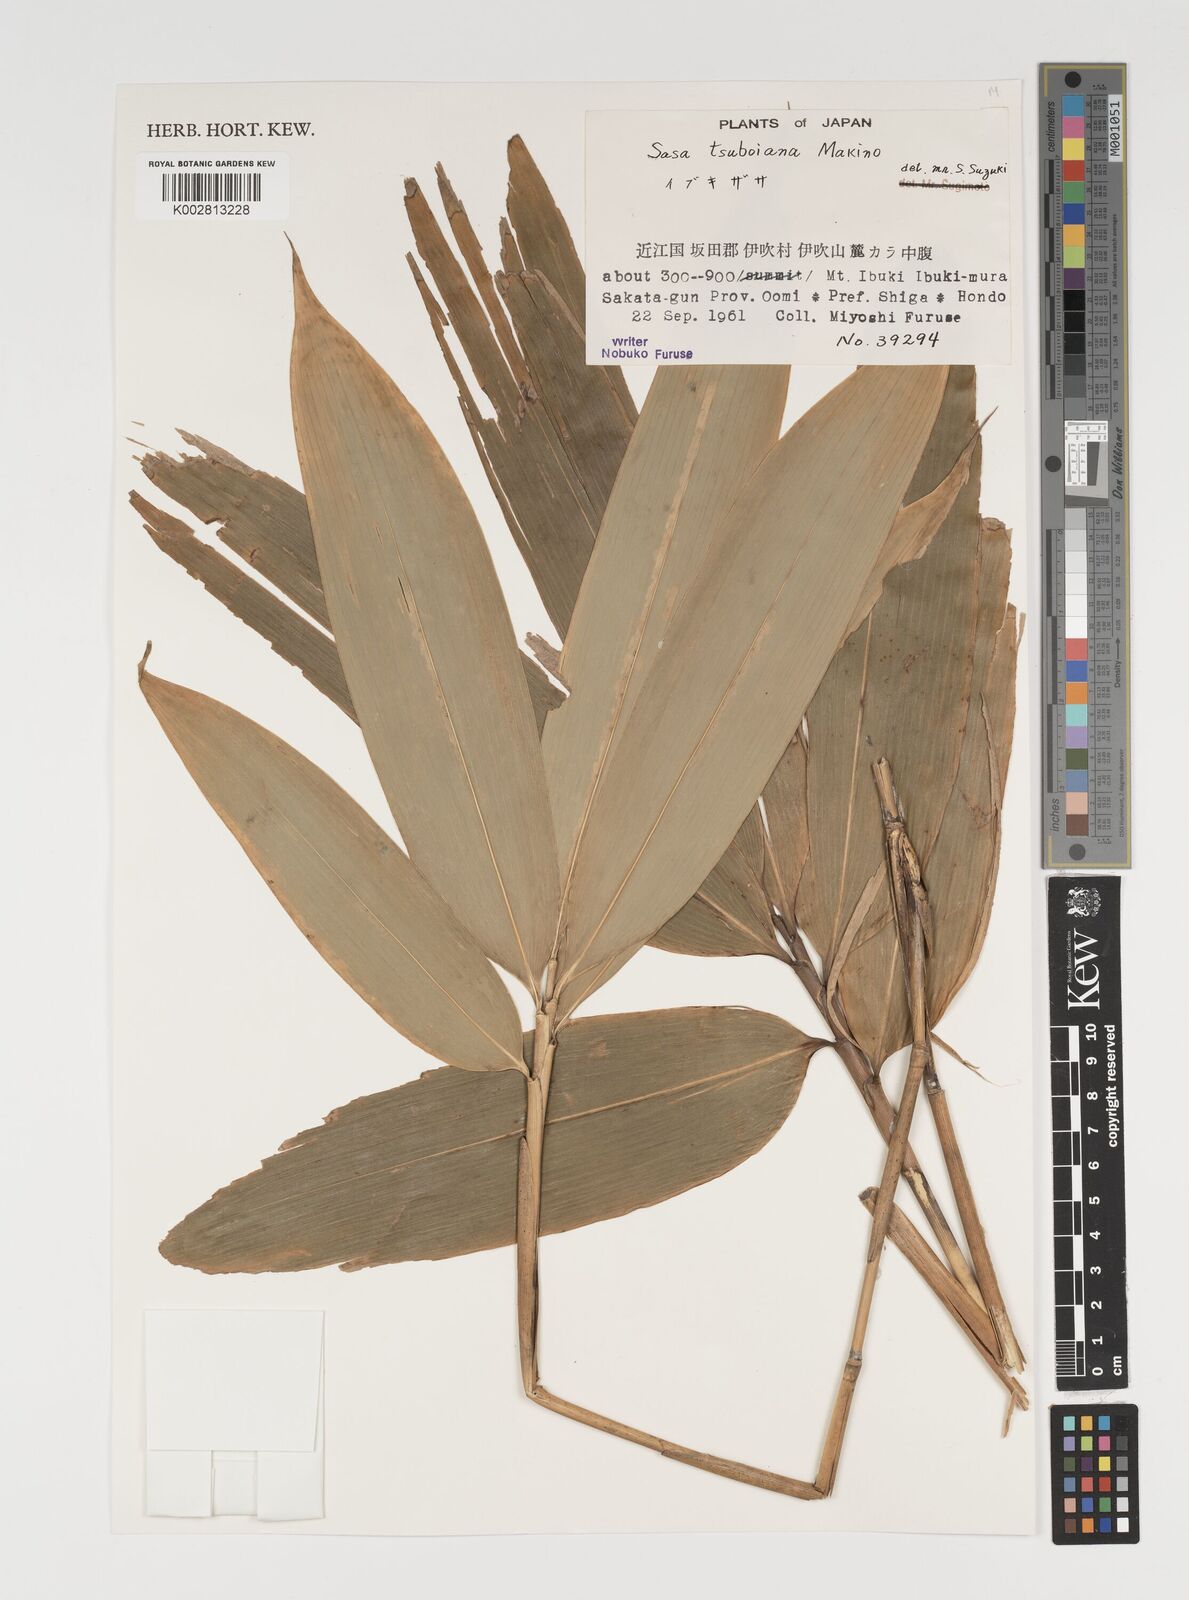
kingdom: Plantae
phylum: Tracheophyta
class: Liliopsida
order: Poales
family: Poaceae
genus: Sasa
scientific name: Sasa tsuboiana
